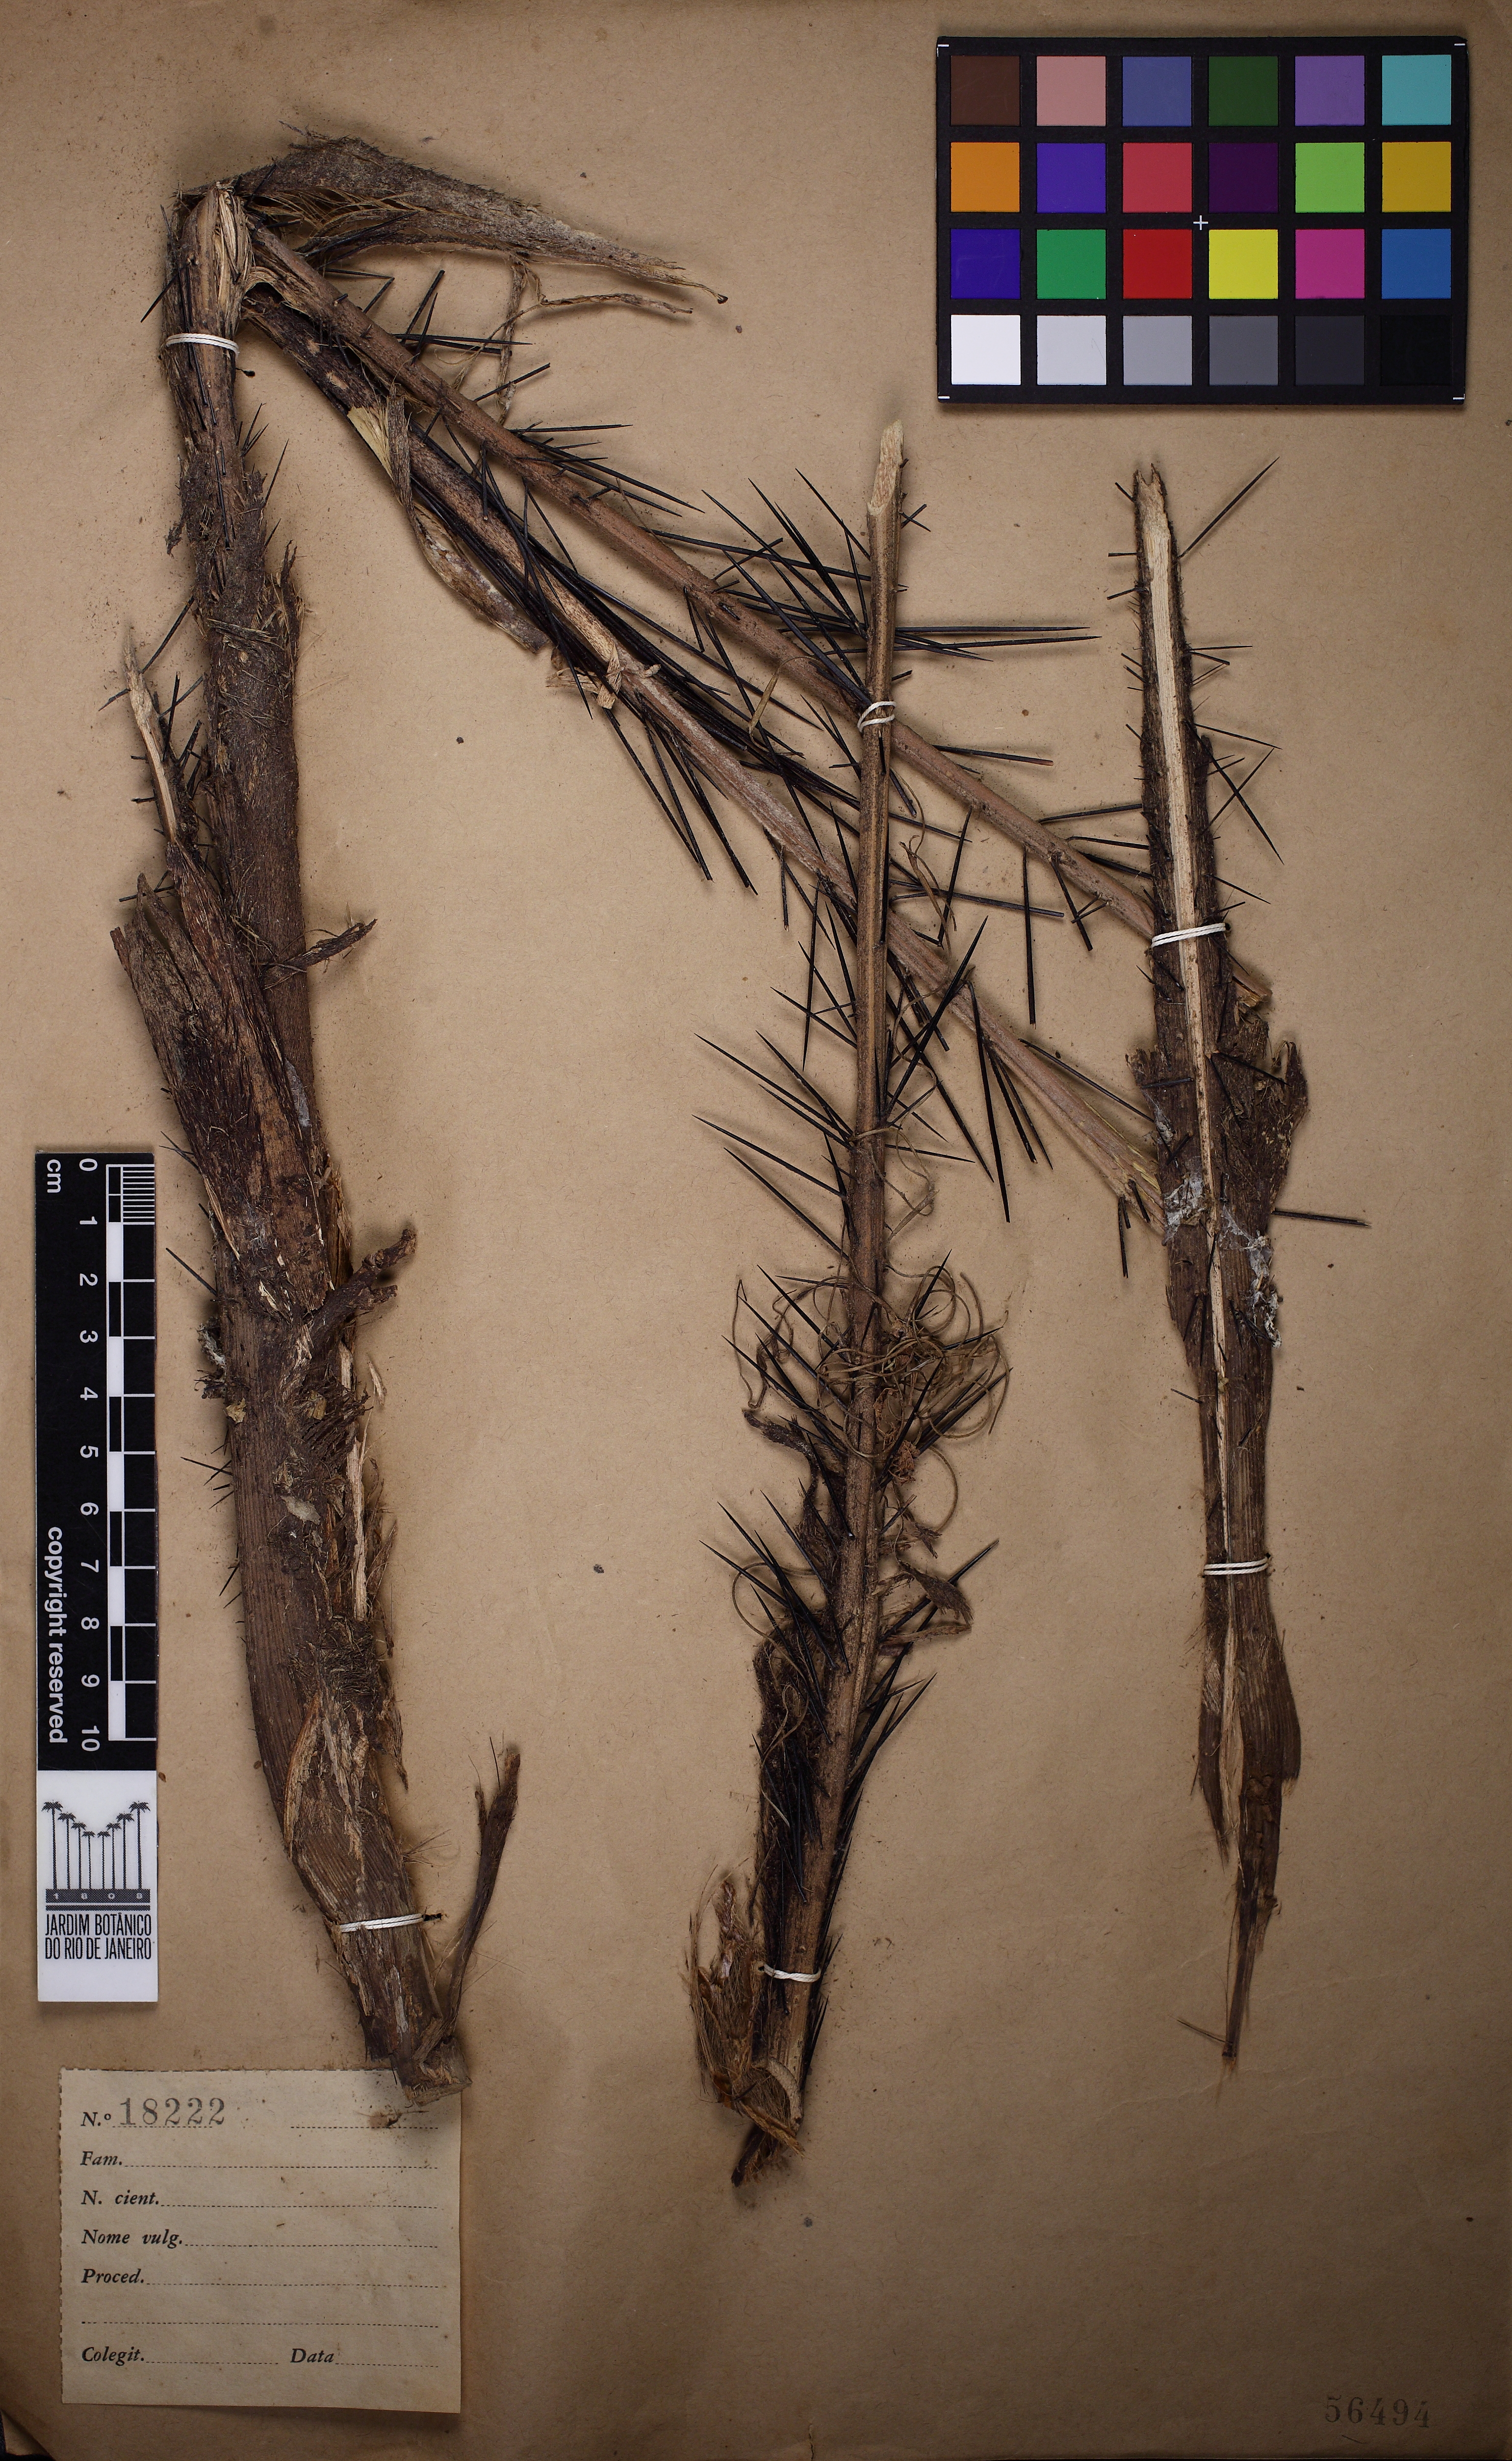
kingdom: Plantae
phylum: Tracheophyta
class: Liliopsida
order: Arecales
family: Arecaceae
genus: Bactris
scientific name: Bactris vulgaris
